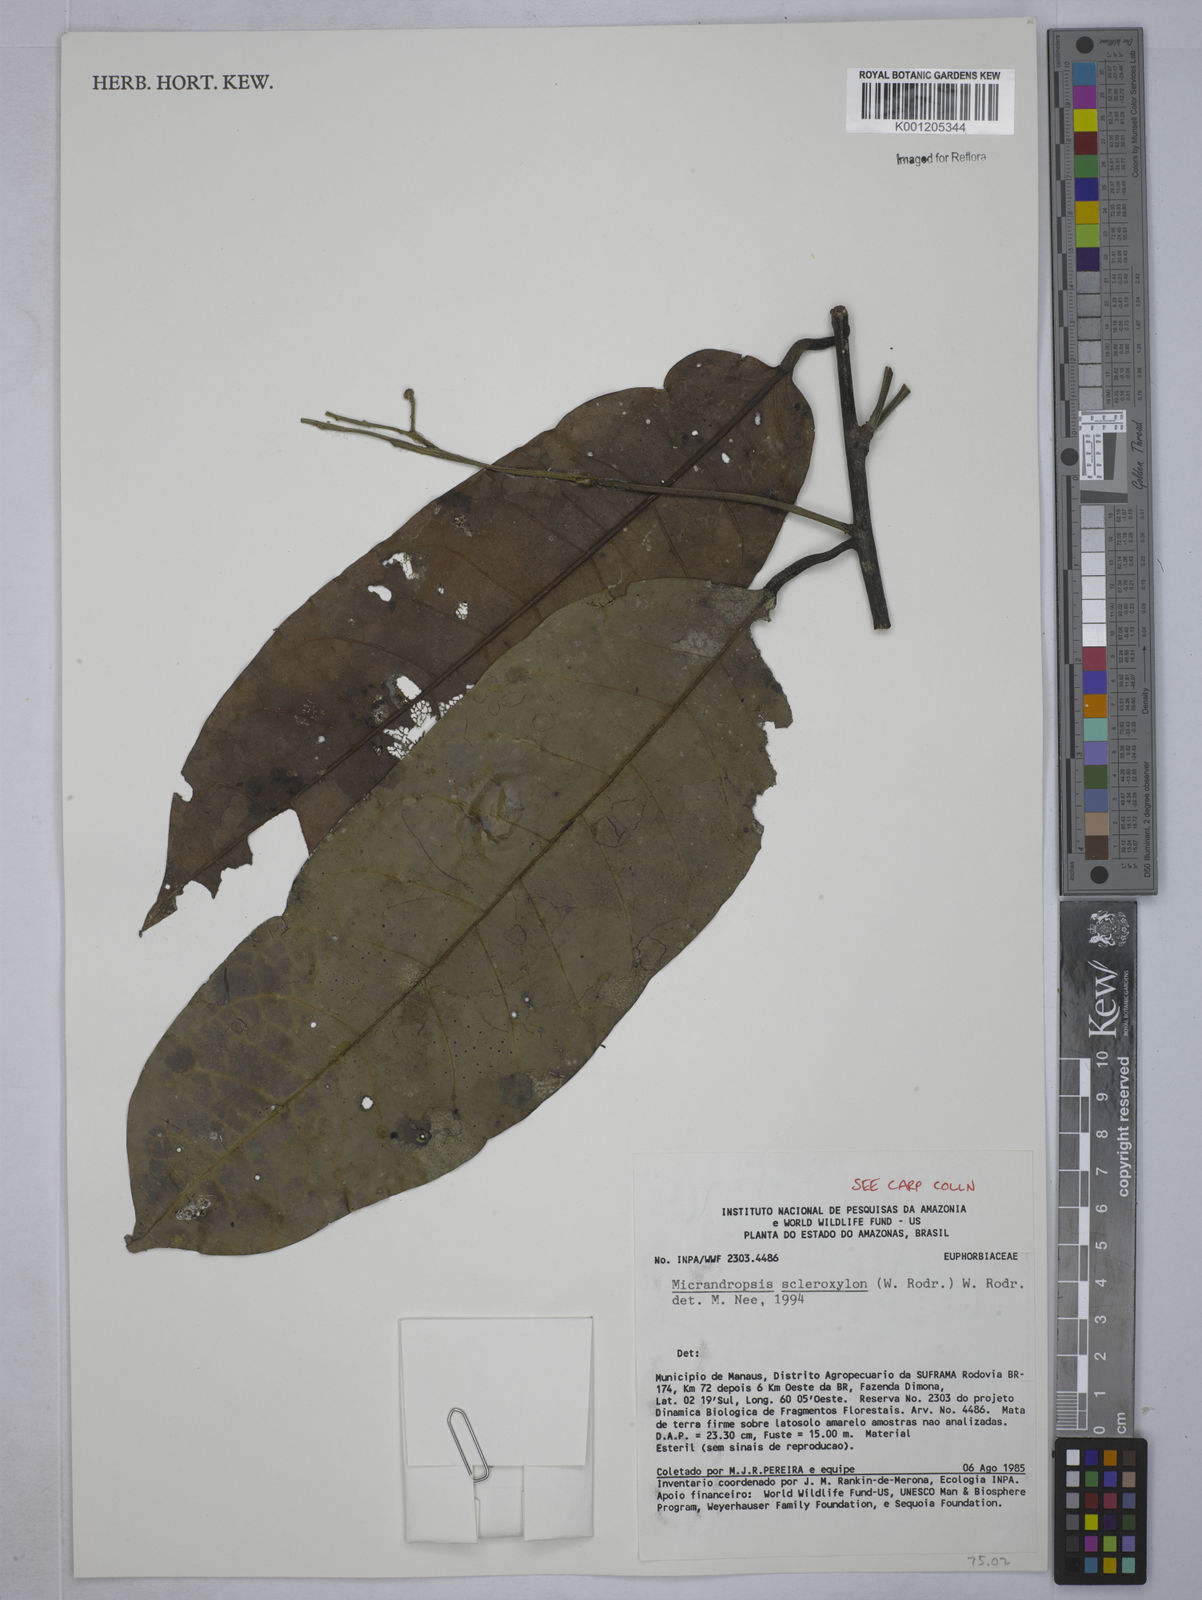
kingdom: Plantae
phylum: Tracheophyta
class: Magnoliopsida
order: Malpighiales
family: Euphorbiaceae
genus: Micrandropsis
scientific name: Micrandropsis scleroxylon
